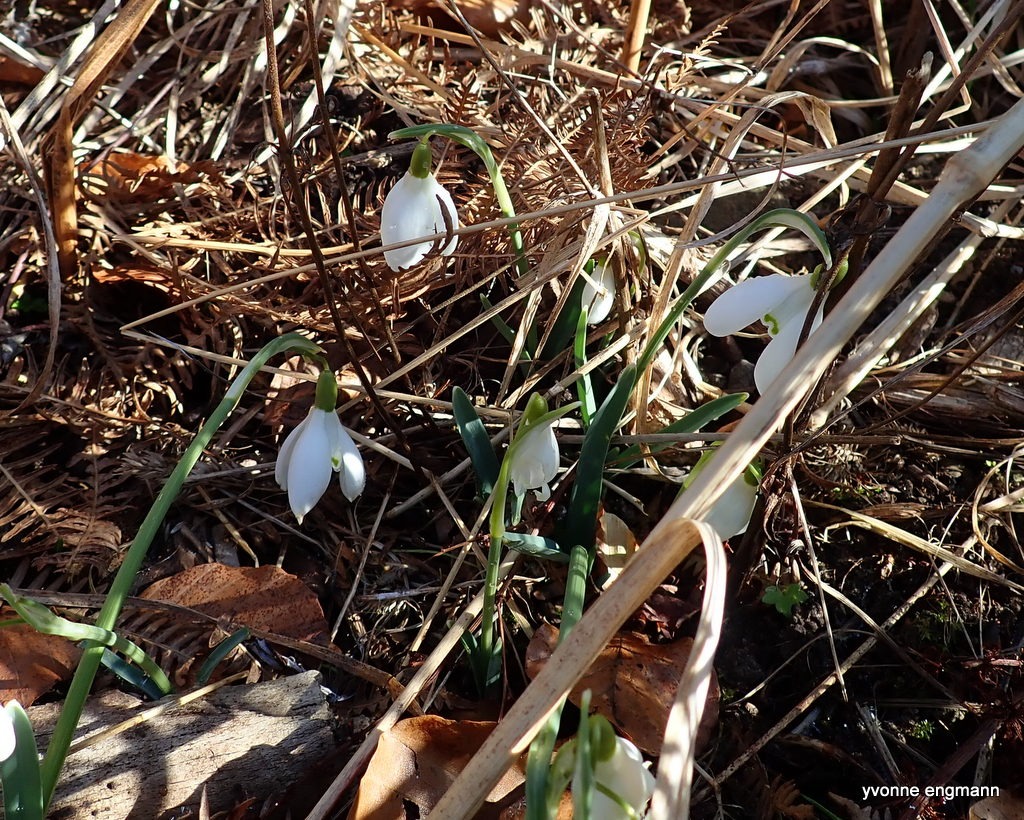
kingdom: Plantae
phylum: Tracheophyta
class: Liliopsida
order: Asparagales
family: Amaryllidaceae
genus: Galanthus
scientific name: Galanthus nivalis
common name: Vintergæk
